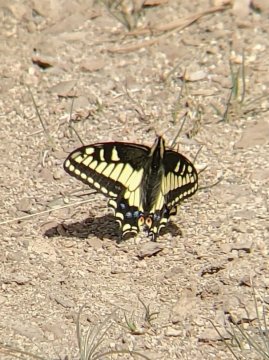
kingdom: Animalia
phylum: Arthropoda
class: Insecta
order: Lepidoptera
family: Papilionidae
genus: Papilio
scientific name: Papilio zelicaon
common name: Anise Swallowtail
